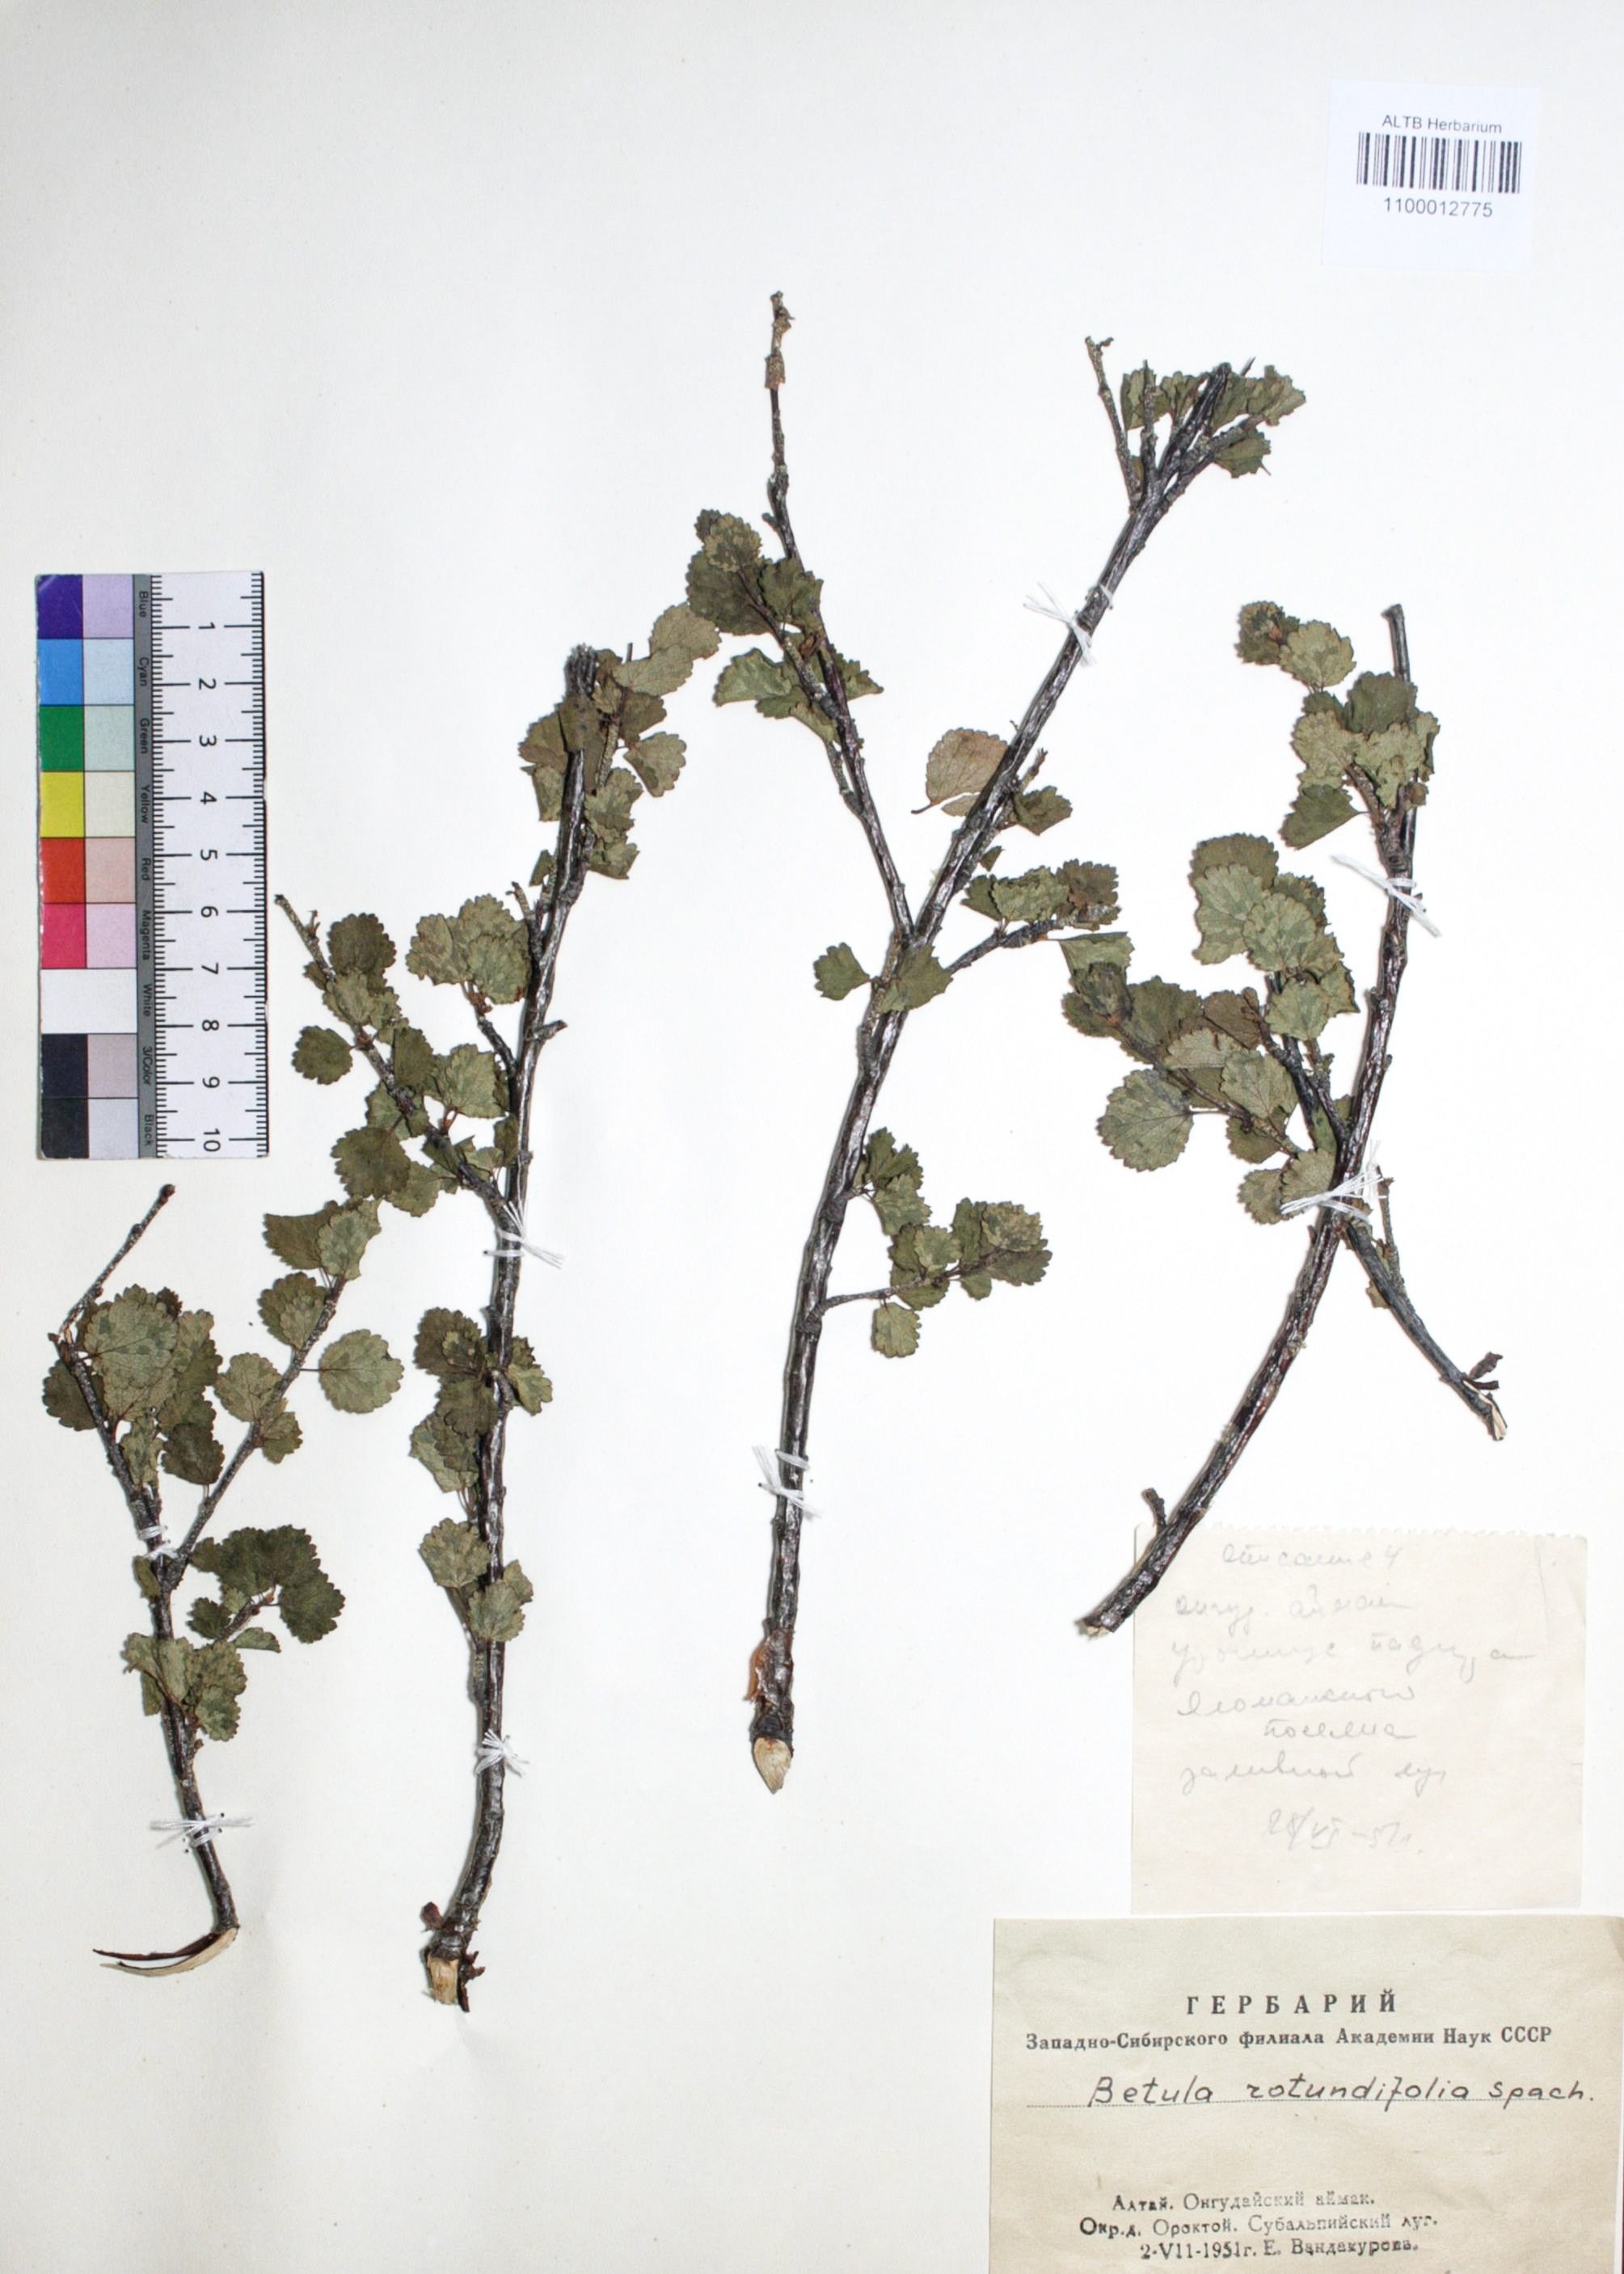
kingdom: Plantae
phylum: Tracheophyta
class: Magnoliopsida
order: Fagales
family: Betulaceae
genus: Betula
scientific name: Betula glandulosa
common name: Dwarf birch
